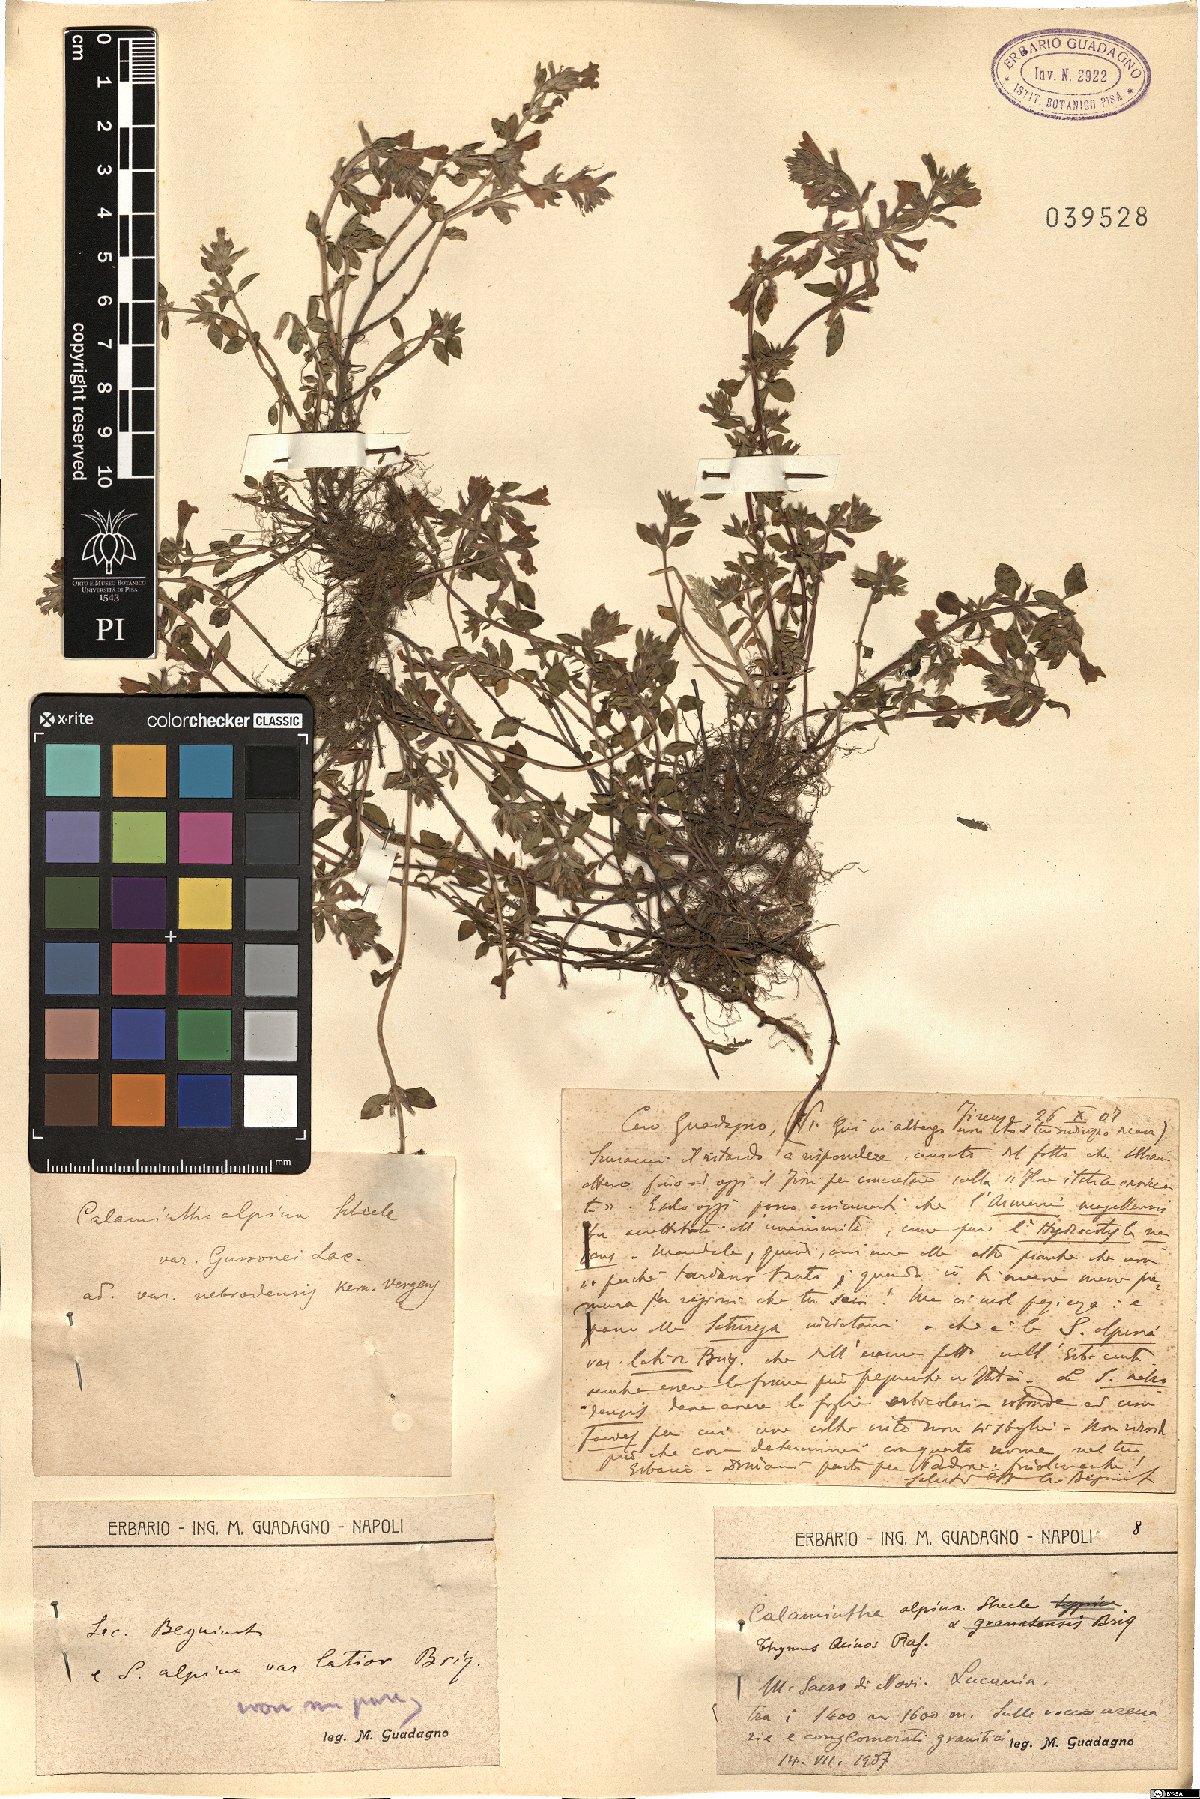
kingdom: Plantae
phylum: Tracheophyta
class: Magnoliopsida
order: Lamiales
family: Lamiaceae
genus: Clinopodium
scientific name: Clinopodium alpinum
